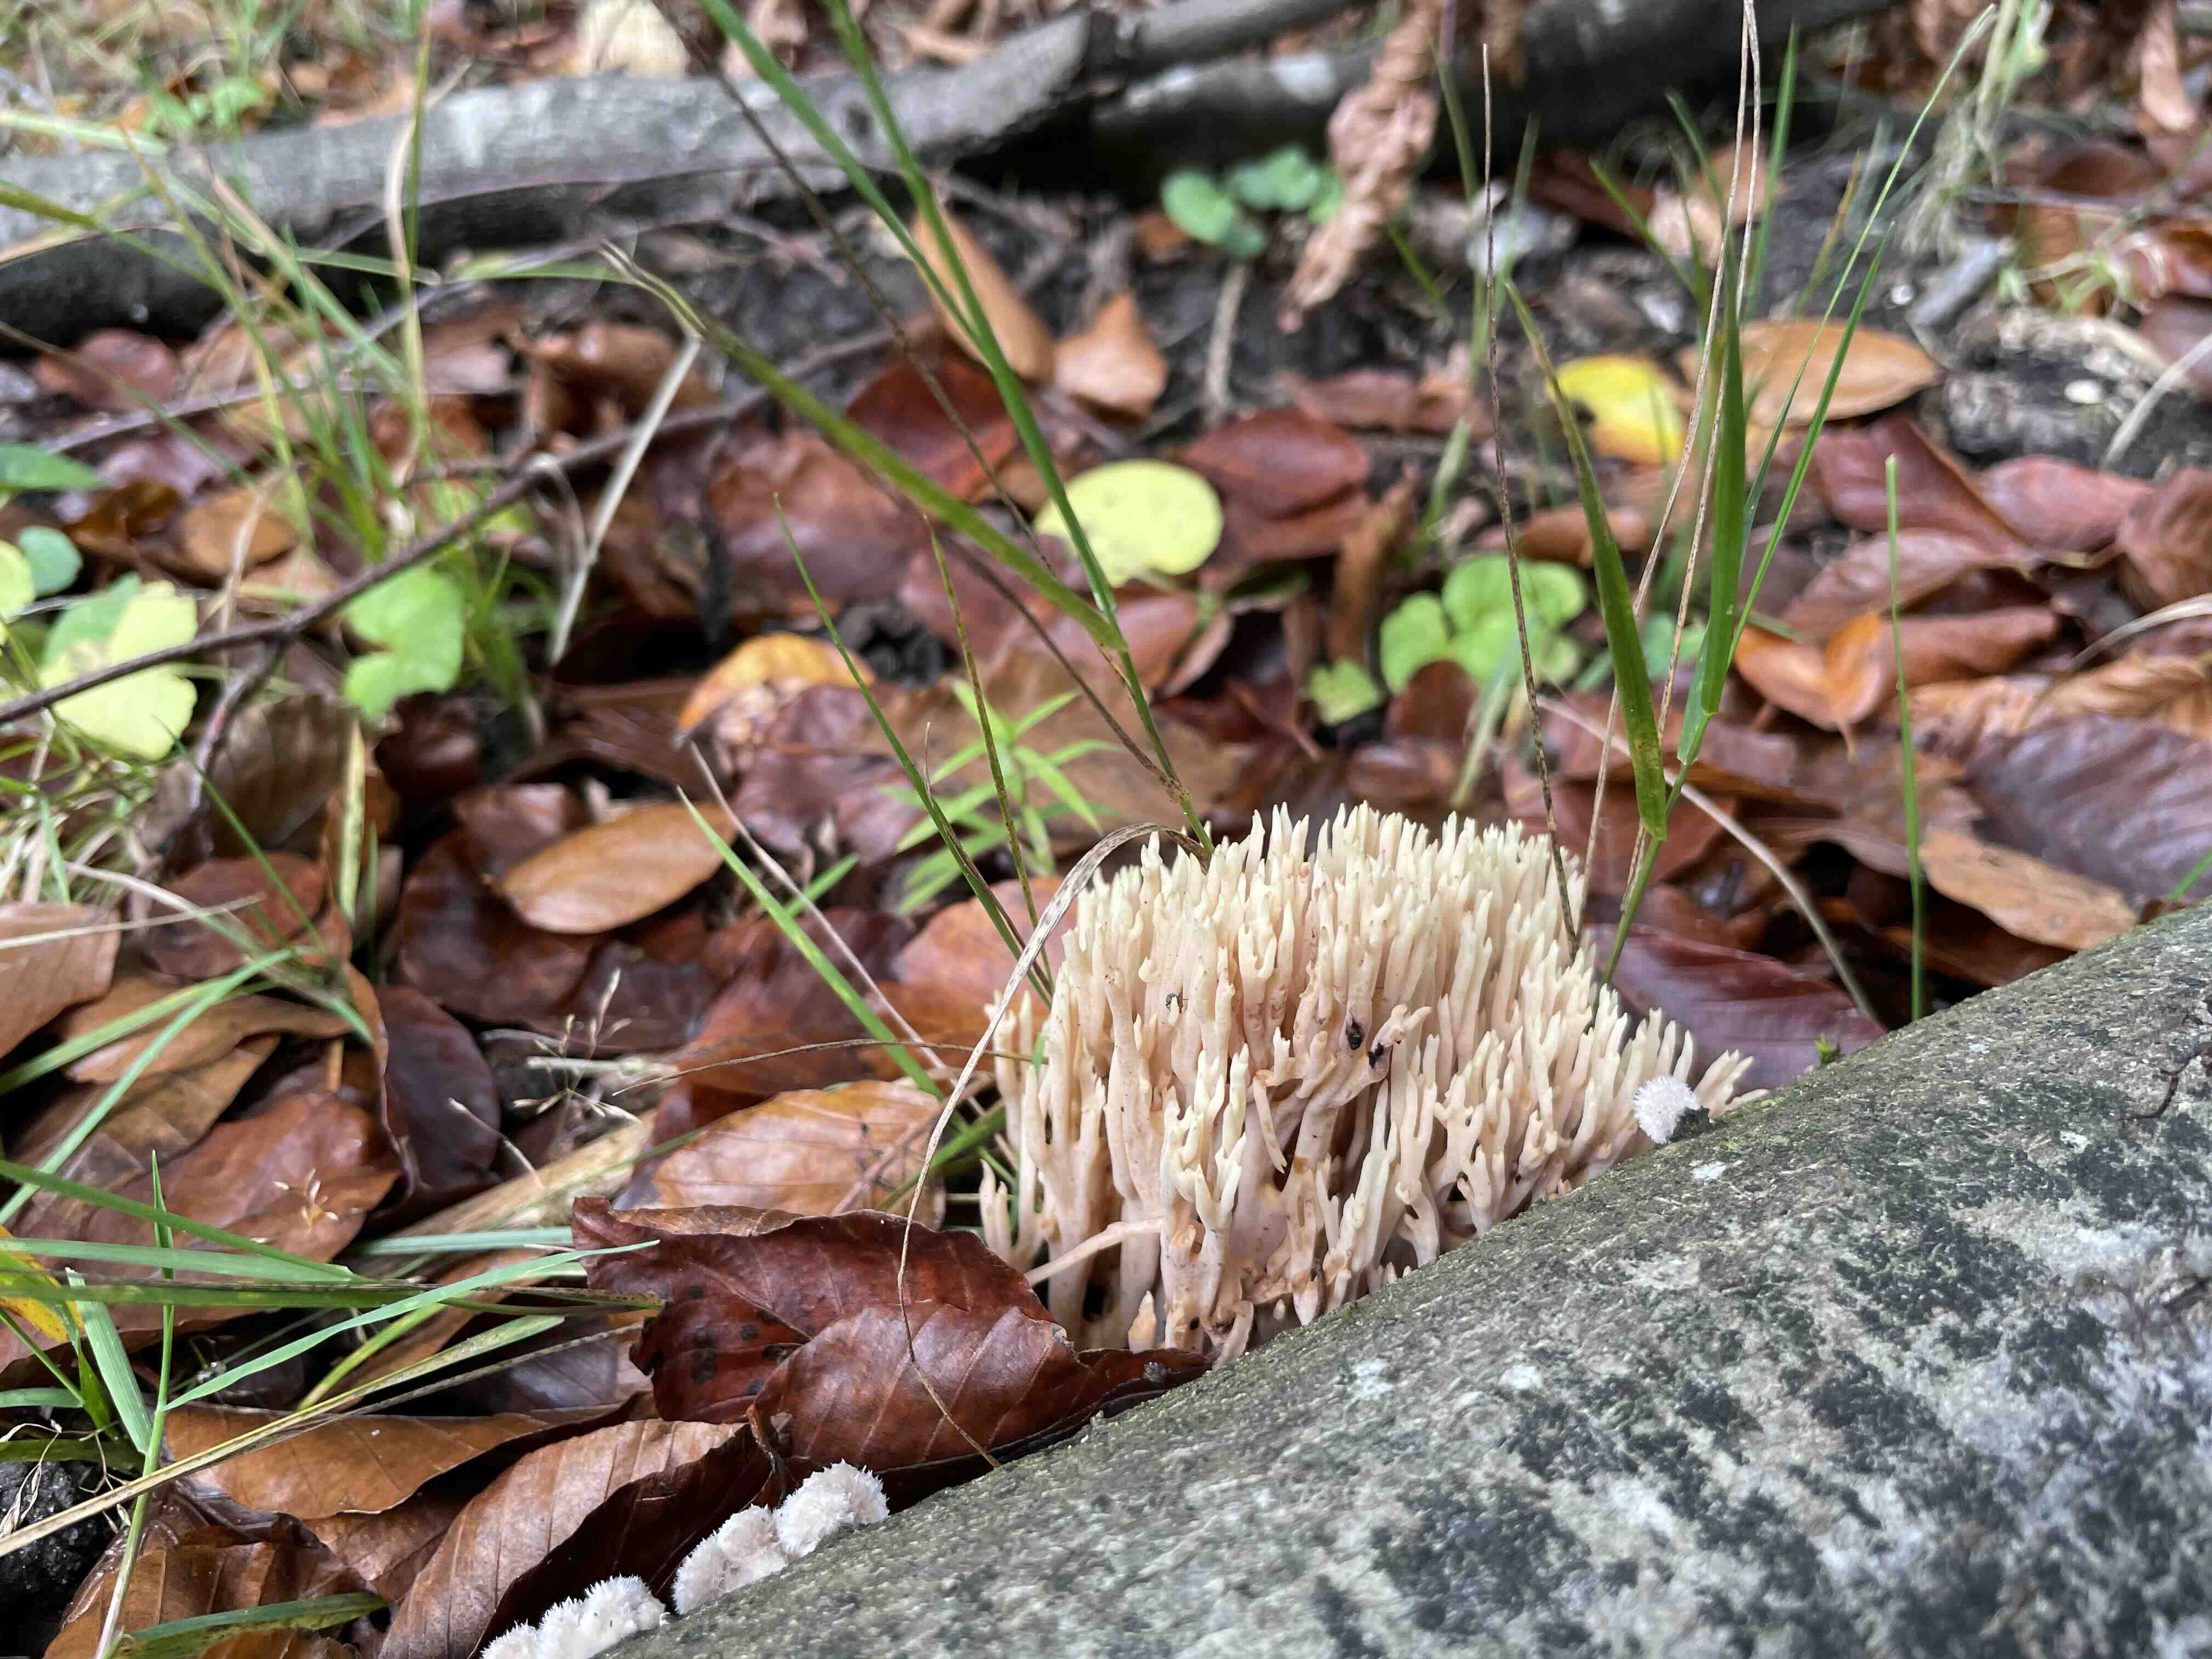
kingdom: Fungi
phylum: Basidiomycota
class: Agaricomycetes
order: Gomphales
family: Gomphaceae
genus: Ramaria
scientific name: Ramaria stricta
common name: rank koralsvamp
